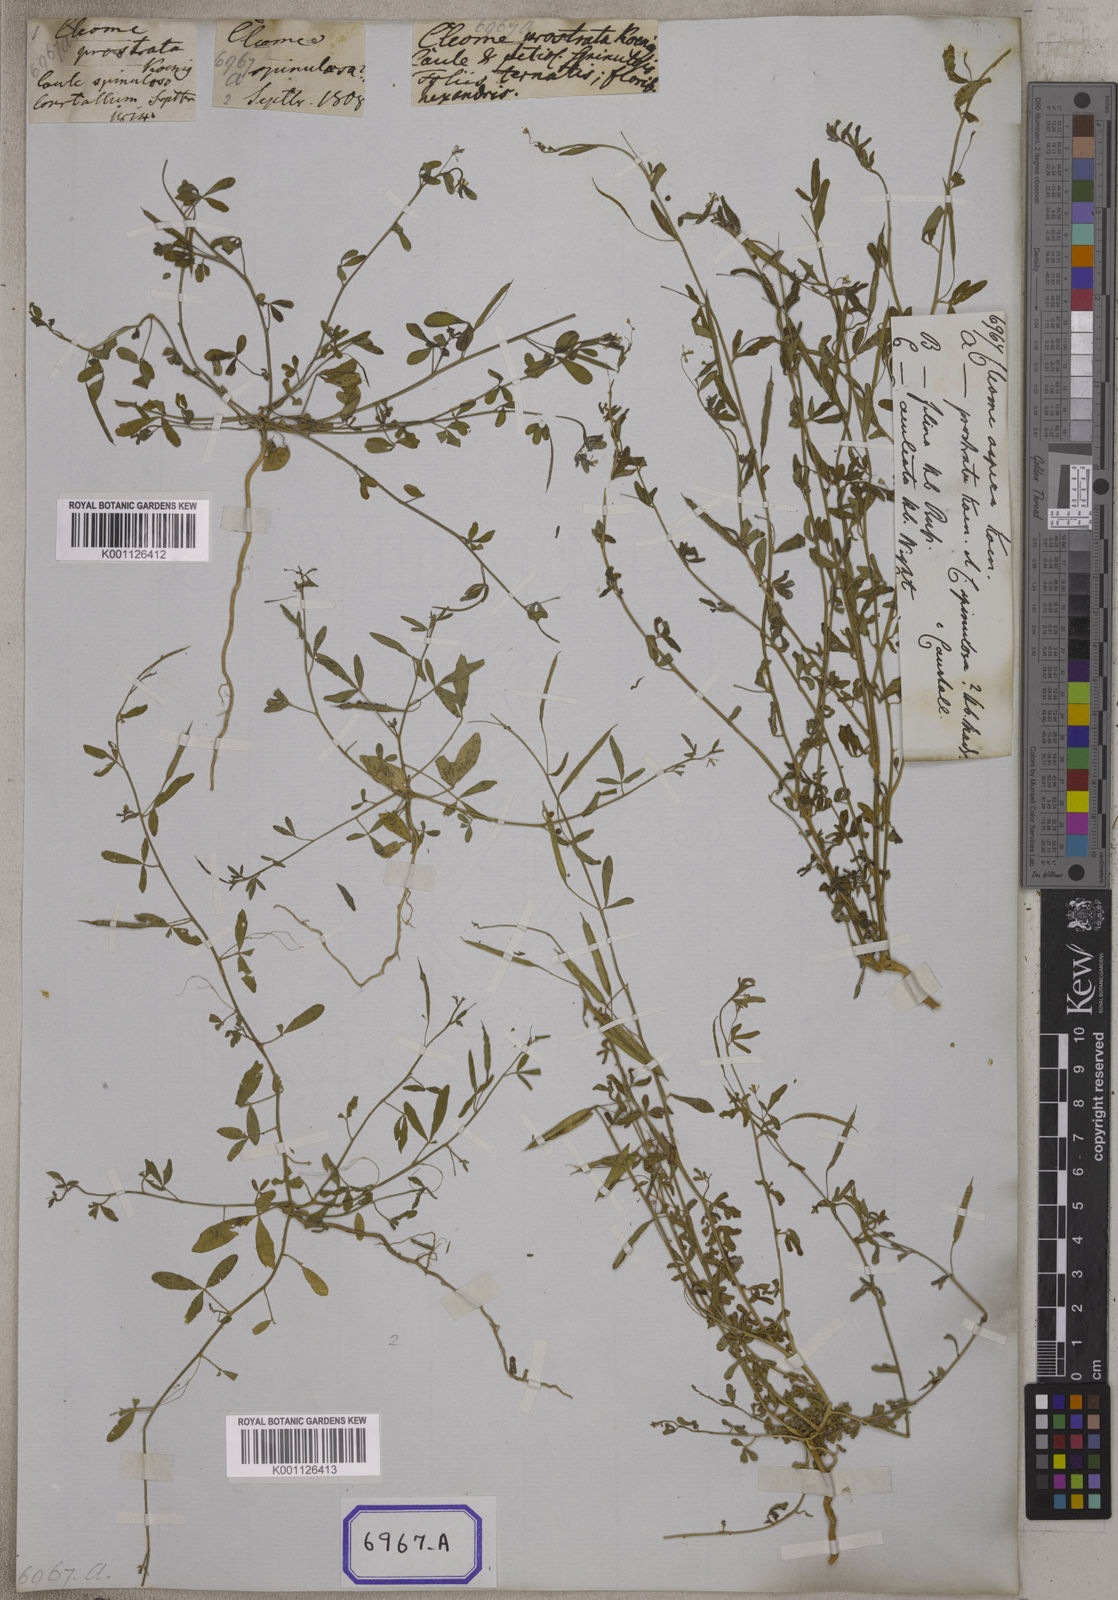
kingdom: Plantae
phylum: Tracheophyta
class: Magnoliopsida
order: Brassicales
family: Cleomaceae
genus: Cleome
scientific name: Cleome
